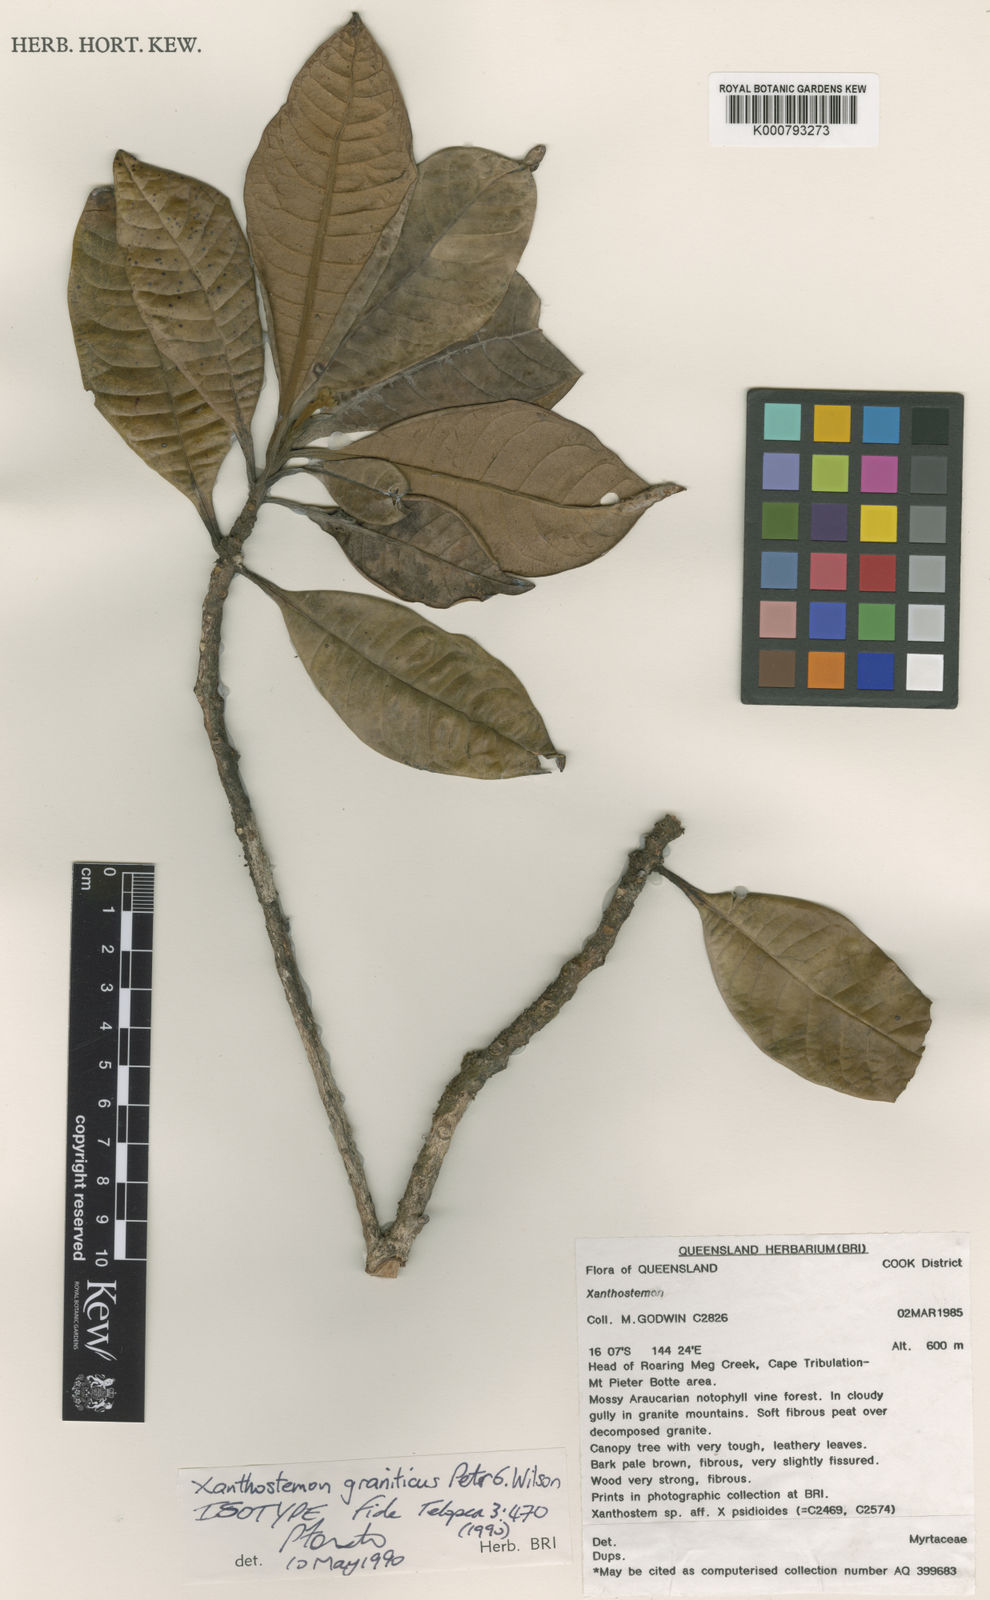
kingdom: Plantae
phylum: Tracheophyta
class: Magnoliopsida
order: Myrtales
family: Myrtaceae
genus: Xanthostemon
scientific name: Xanthostemon graniticus
